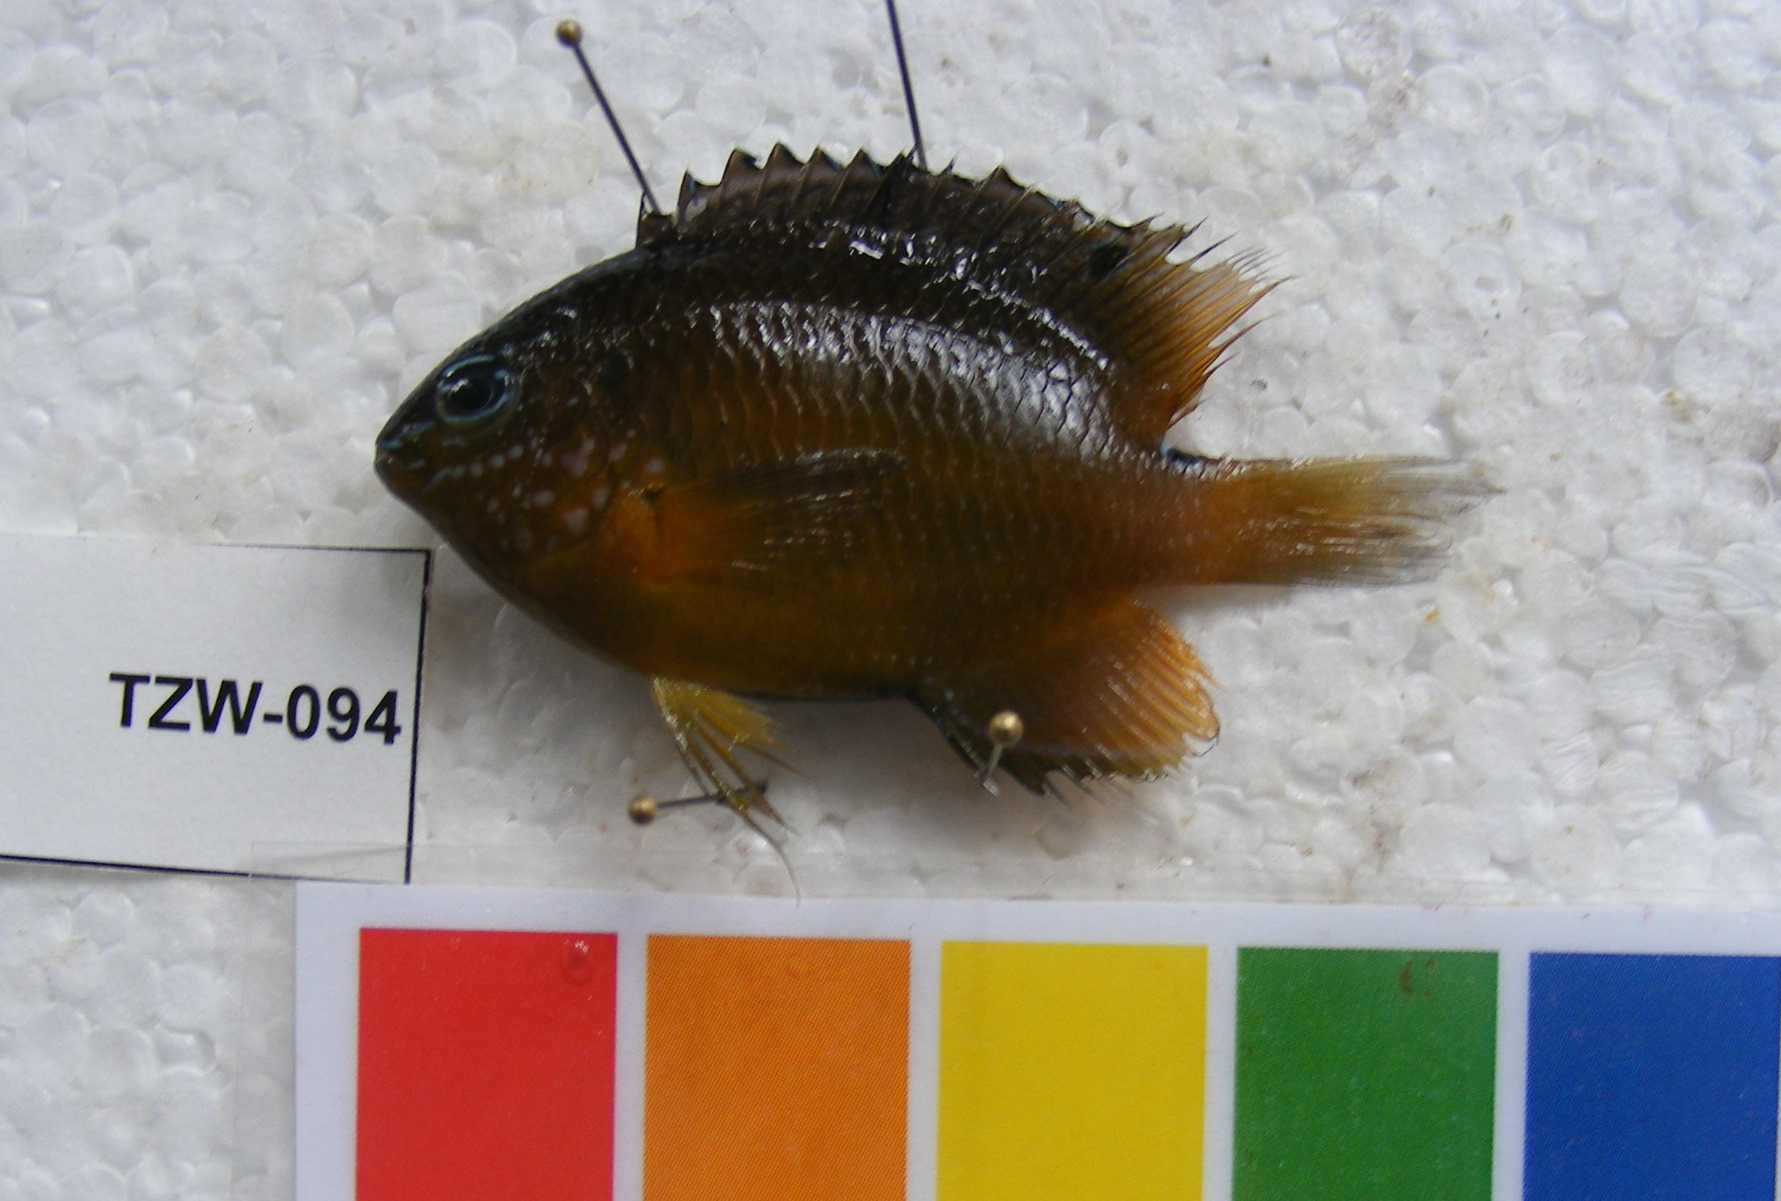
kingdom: Animalia
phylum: Chordata
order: Perciformes
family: Pomacentridae
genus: Pomacentrus
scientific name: Pomacentrus trilineatus
